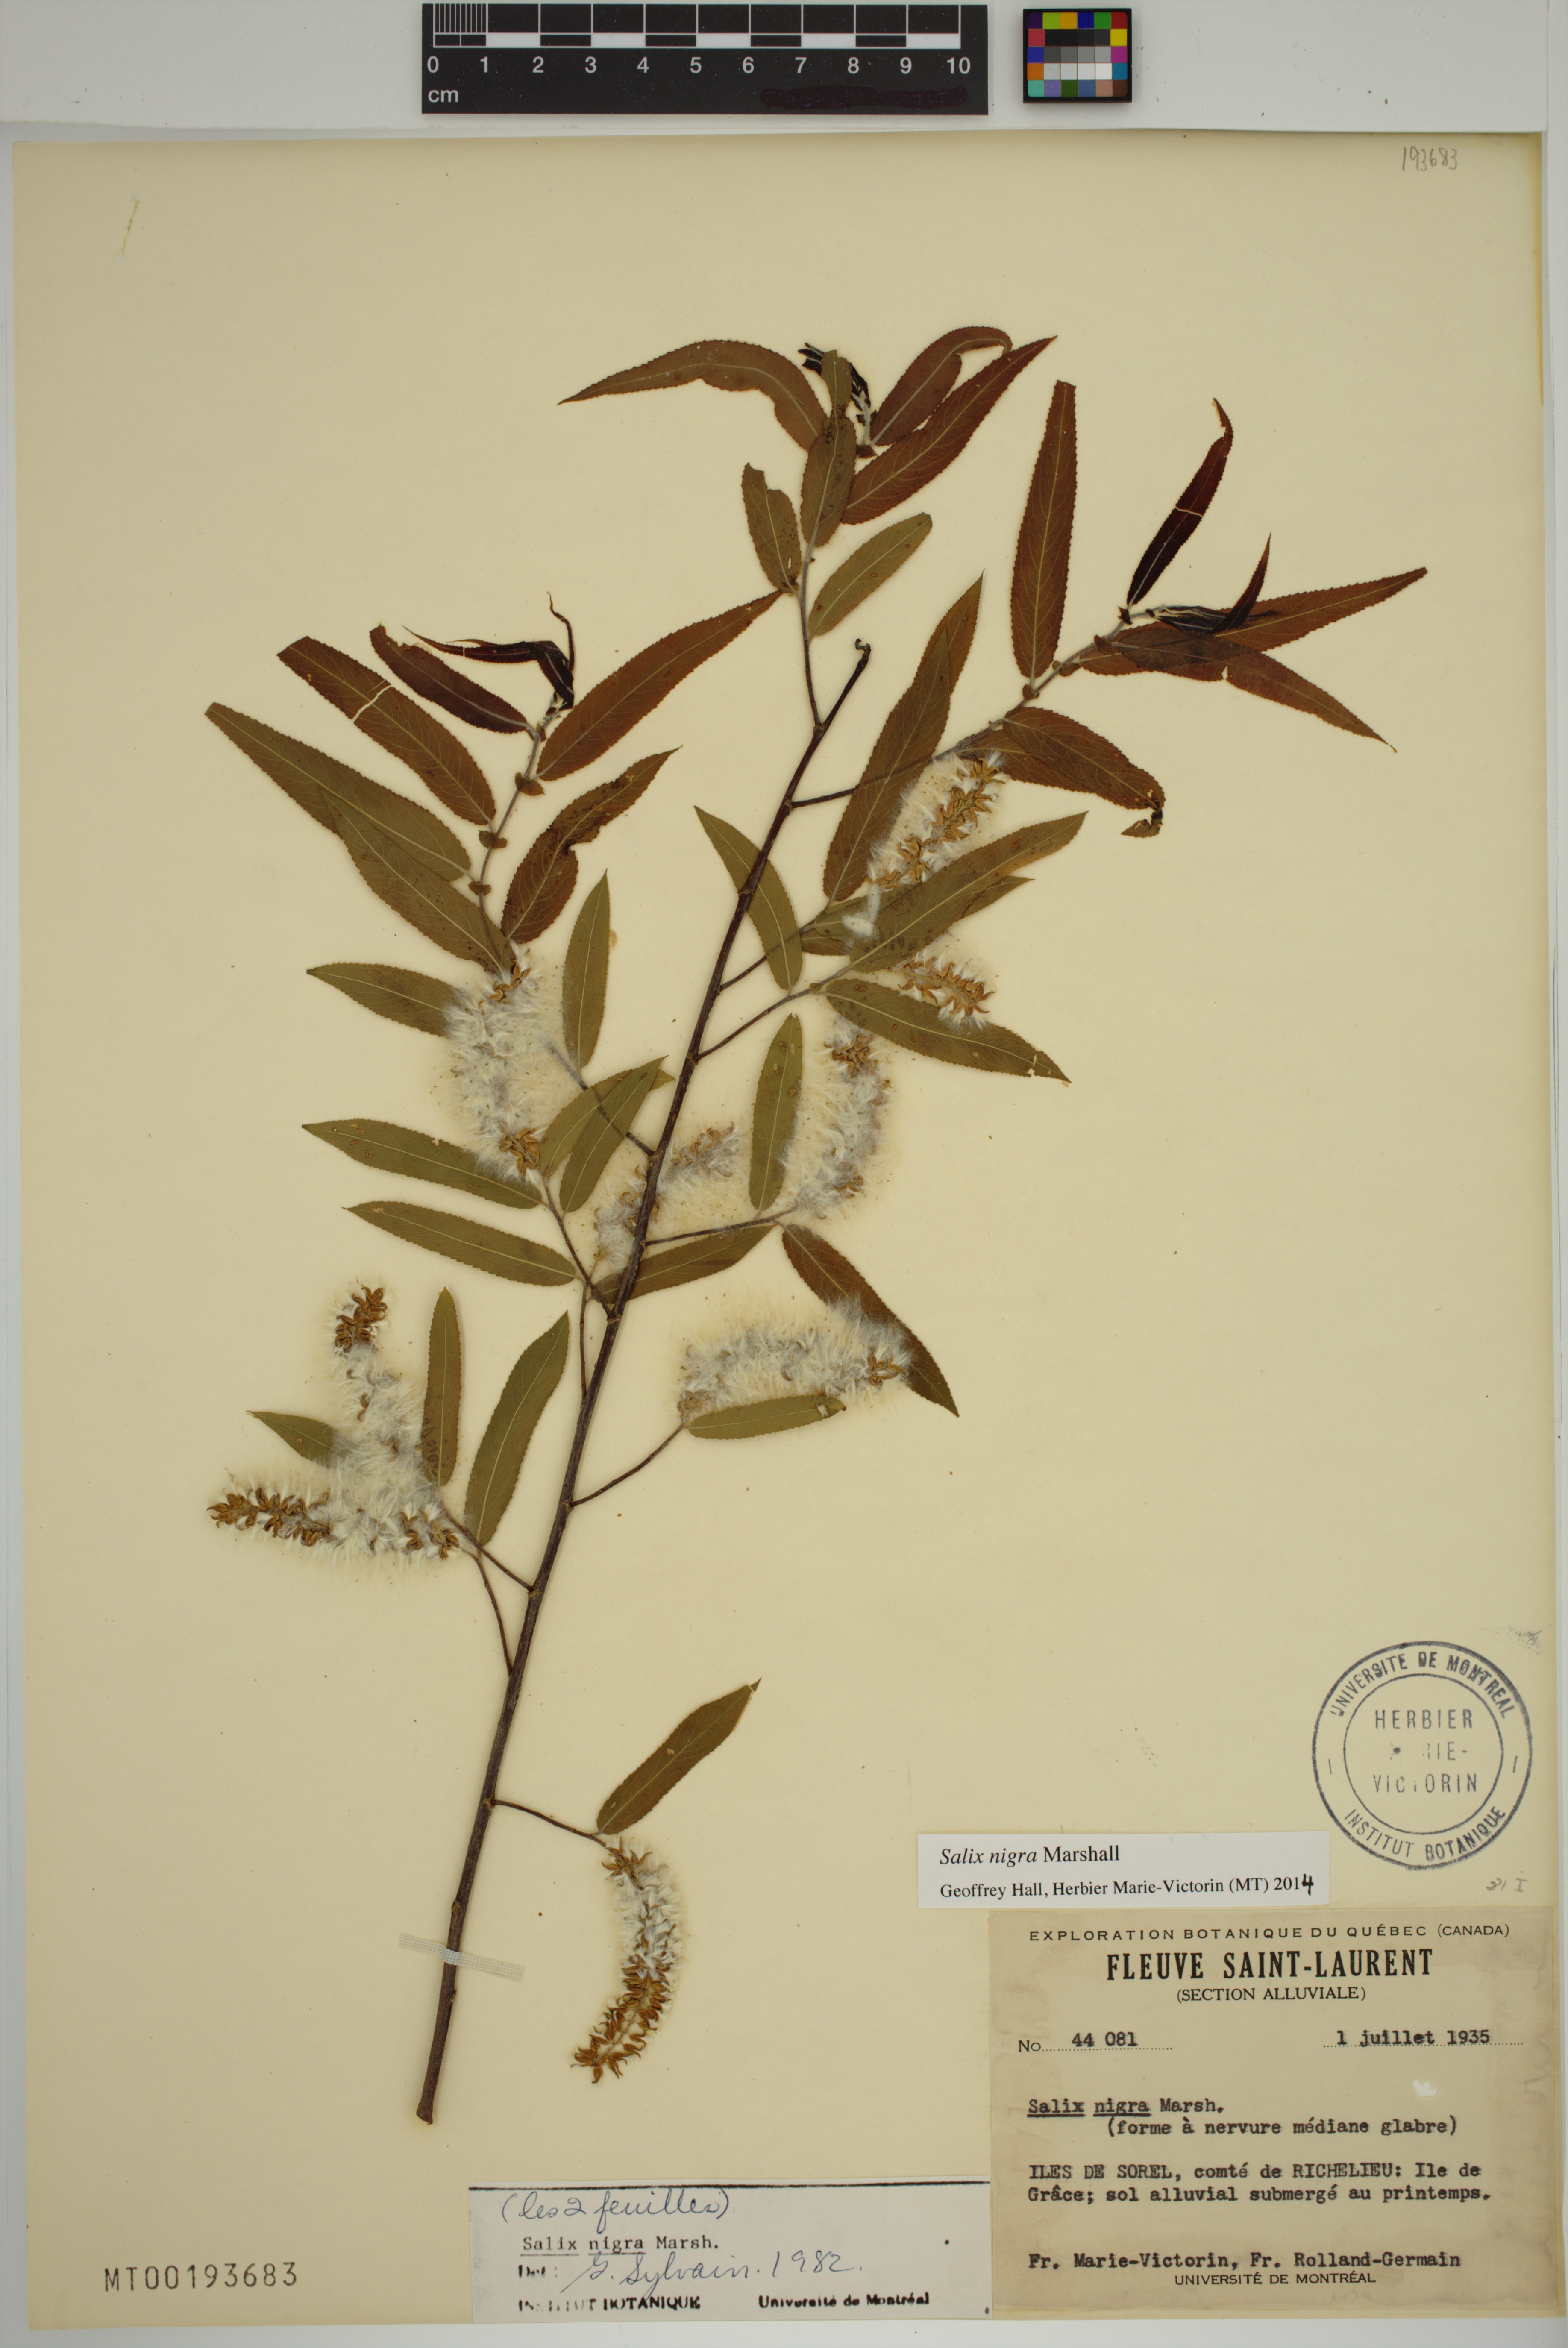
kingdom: Plantae
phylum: Tracheophyta
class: Magnoliopsida
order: Malpighiales
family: Salicaceae
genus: Salix
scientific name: Salix nigra
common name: Black willow
